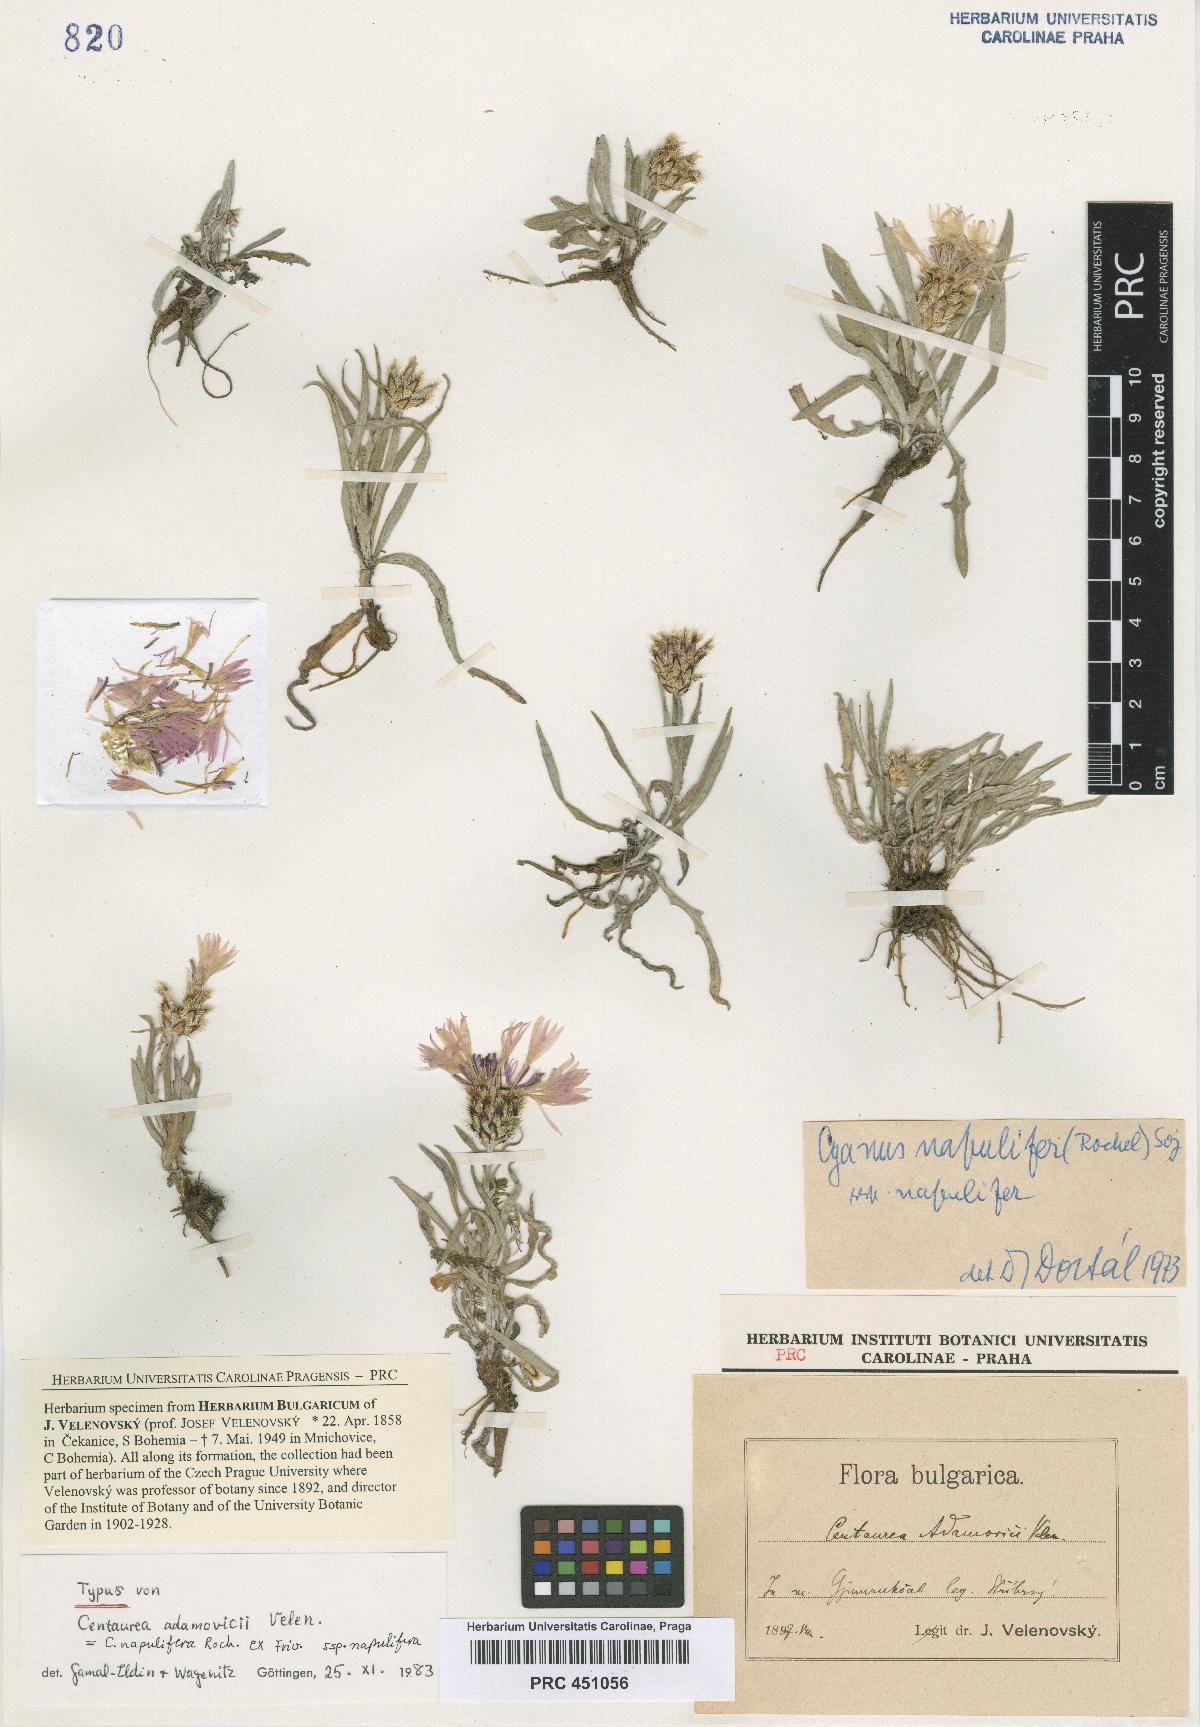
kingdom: Plantae
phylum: Tracheophyta
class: Magnoliopsida
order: Asterales
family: Asteraceae
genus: Centaurea
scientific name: Centaurea adamovicii
